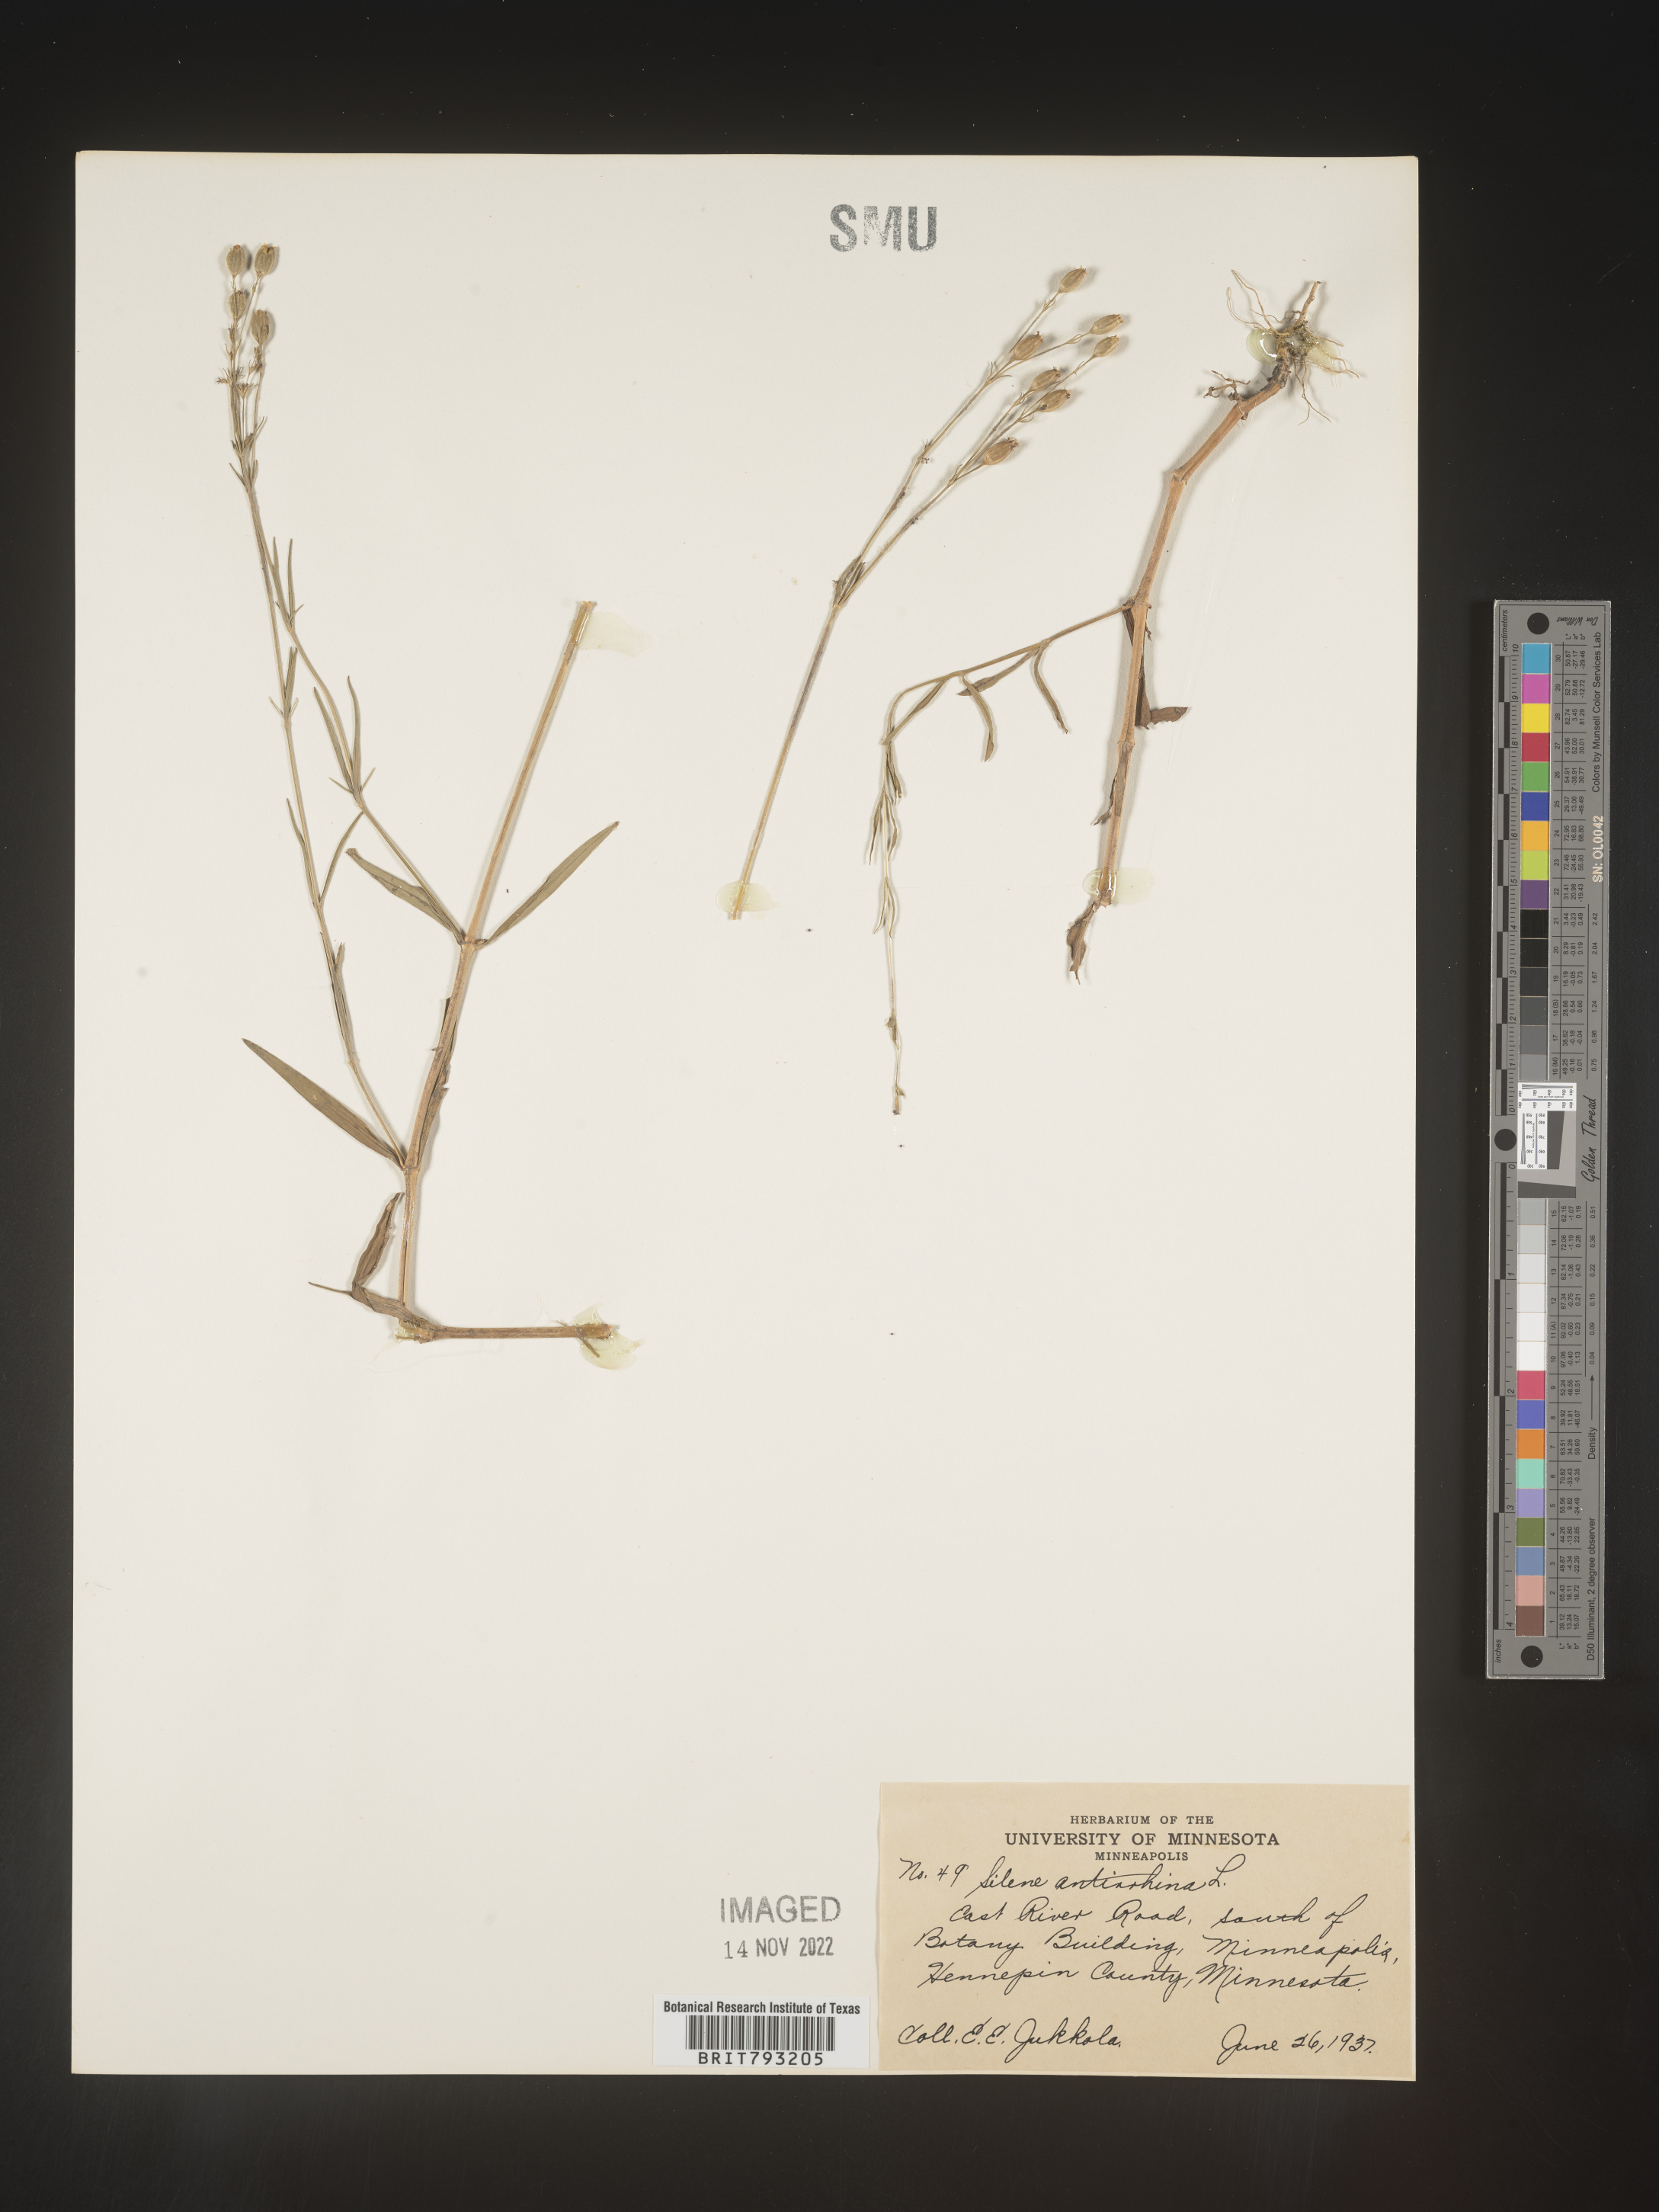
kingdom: Plantae
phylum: Tracheophyta
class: Magnoliopsida
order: Caryophyllales
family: Caryophyllaceae
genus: Silene
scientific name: Silene antirrhina
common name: Sleepy catchfly
